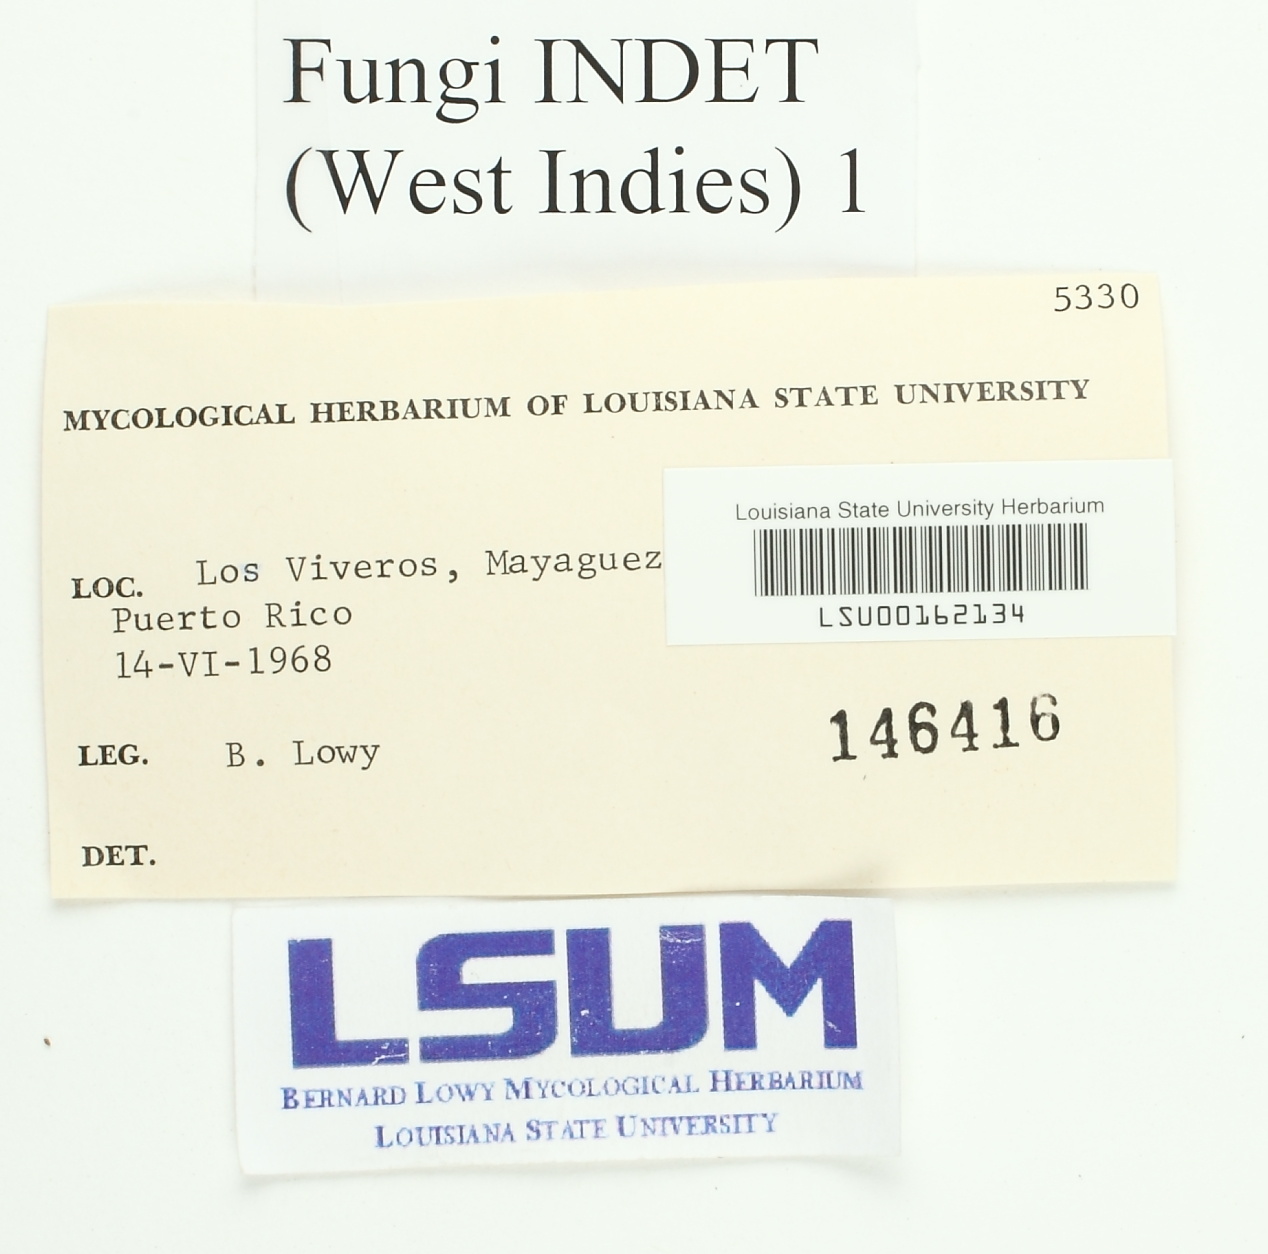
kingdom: Fungi
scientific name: Fungi
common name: Fungi
